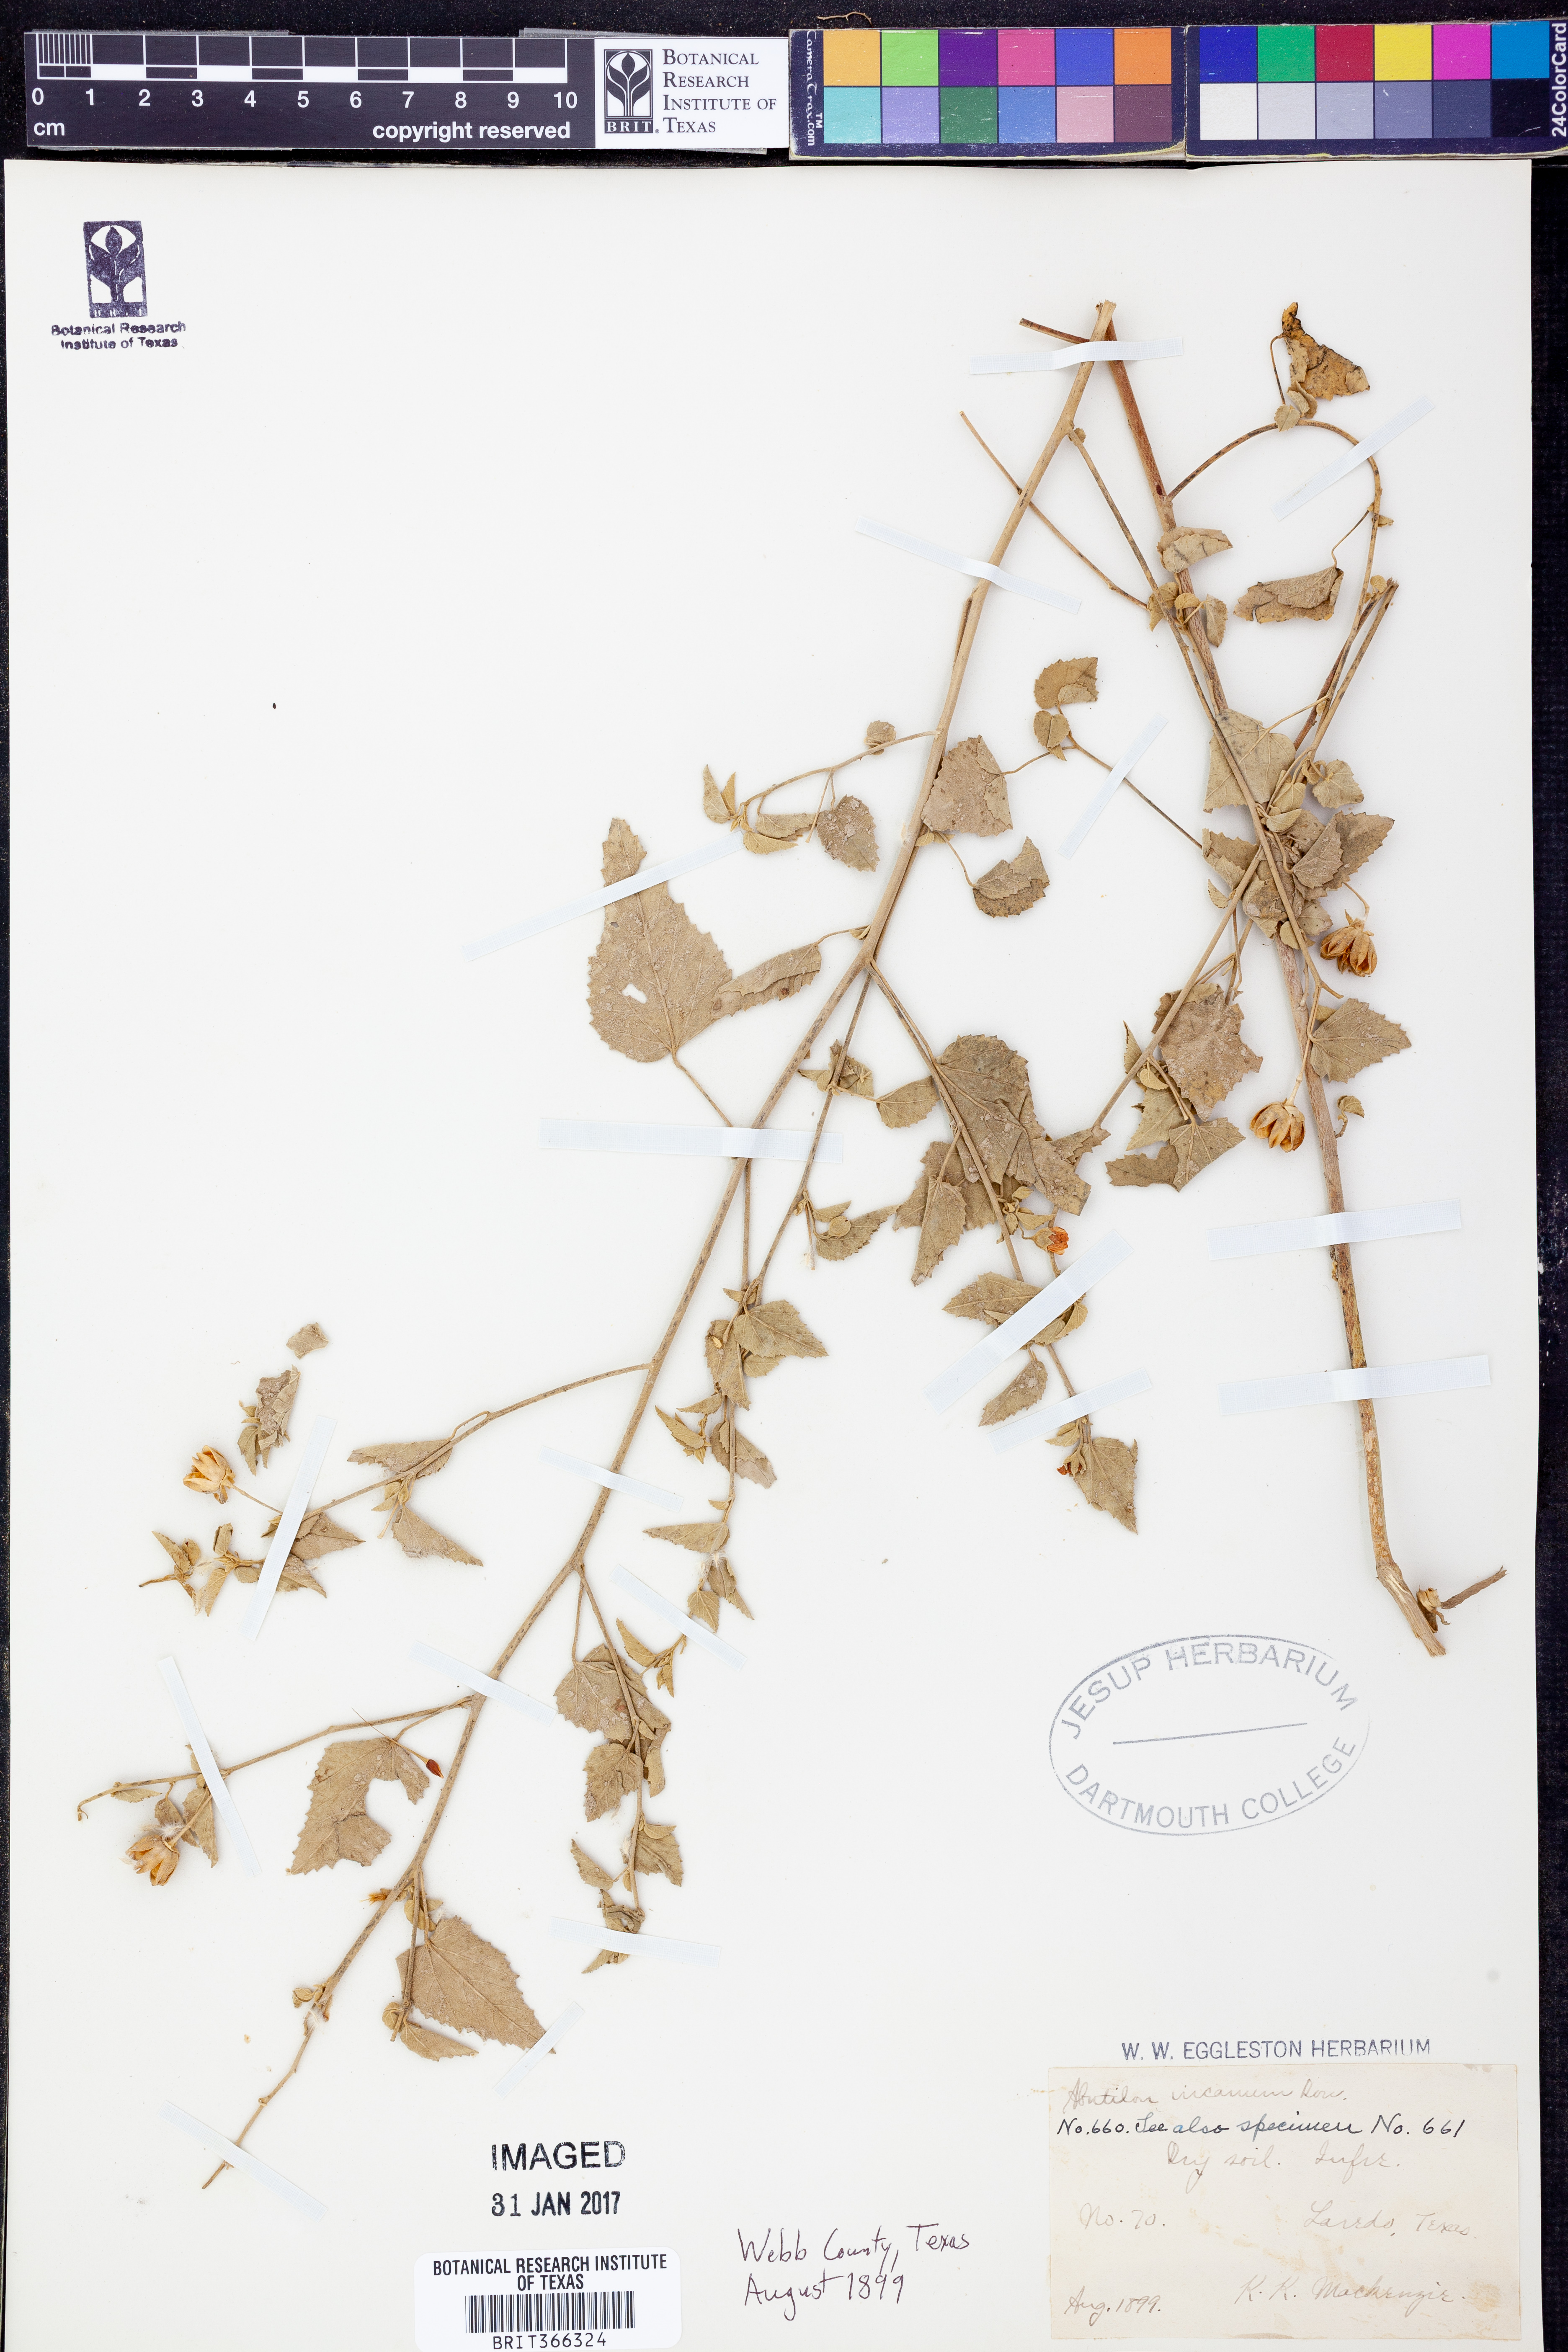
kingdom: Plantae
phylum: Tracheophyta
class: Magnoliopsida
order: Malvales
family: Malvaceae
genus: Abutilon
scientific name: Abutilon incanum
